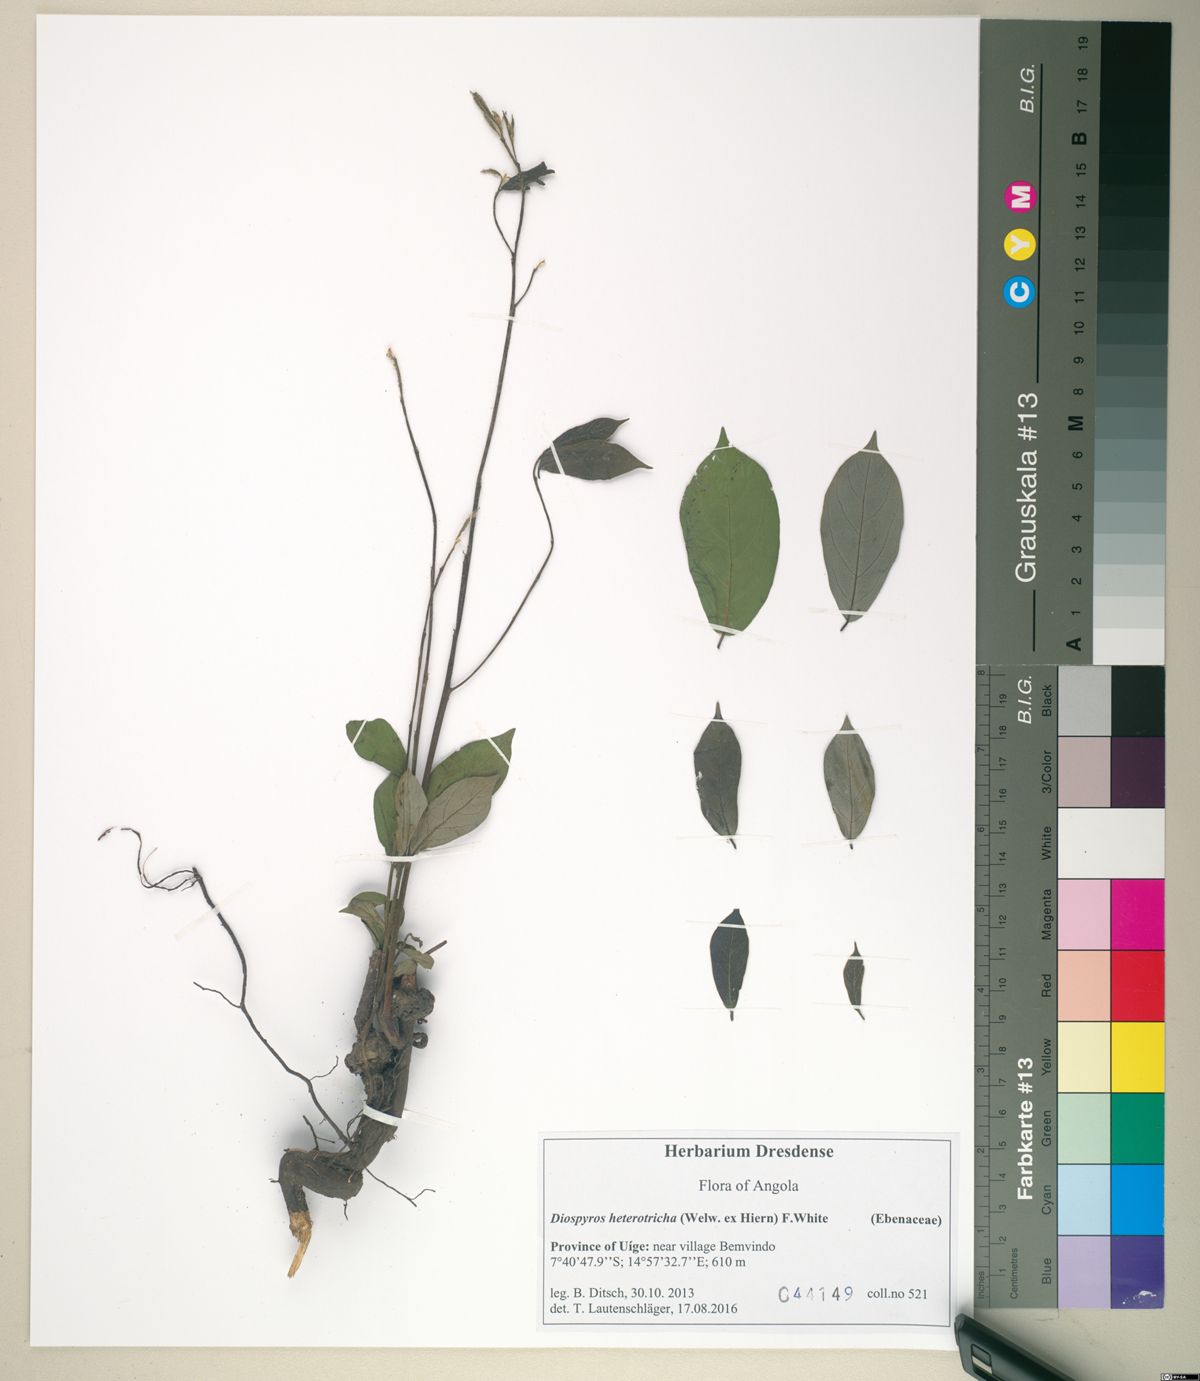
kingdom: Plantae
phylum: Tracheophyta
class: Magnoliopsida
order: Ericales
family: Ebenaceae
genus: Diospyros
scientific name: Diospyros heterotricha
